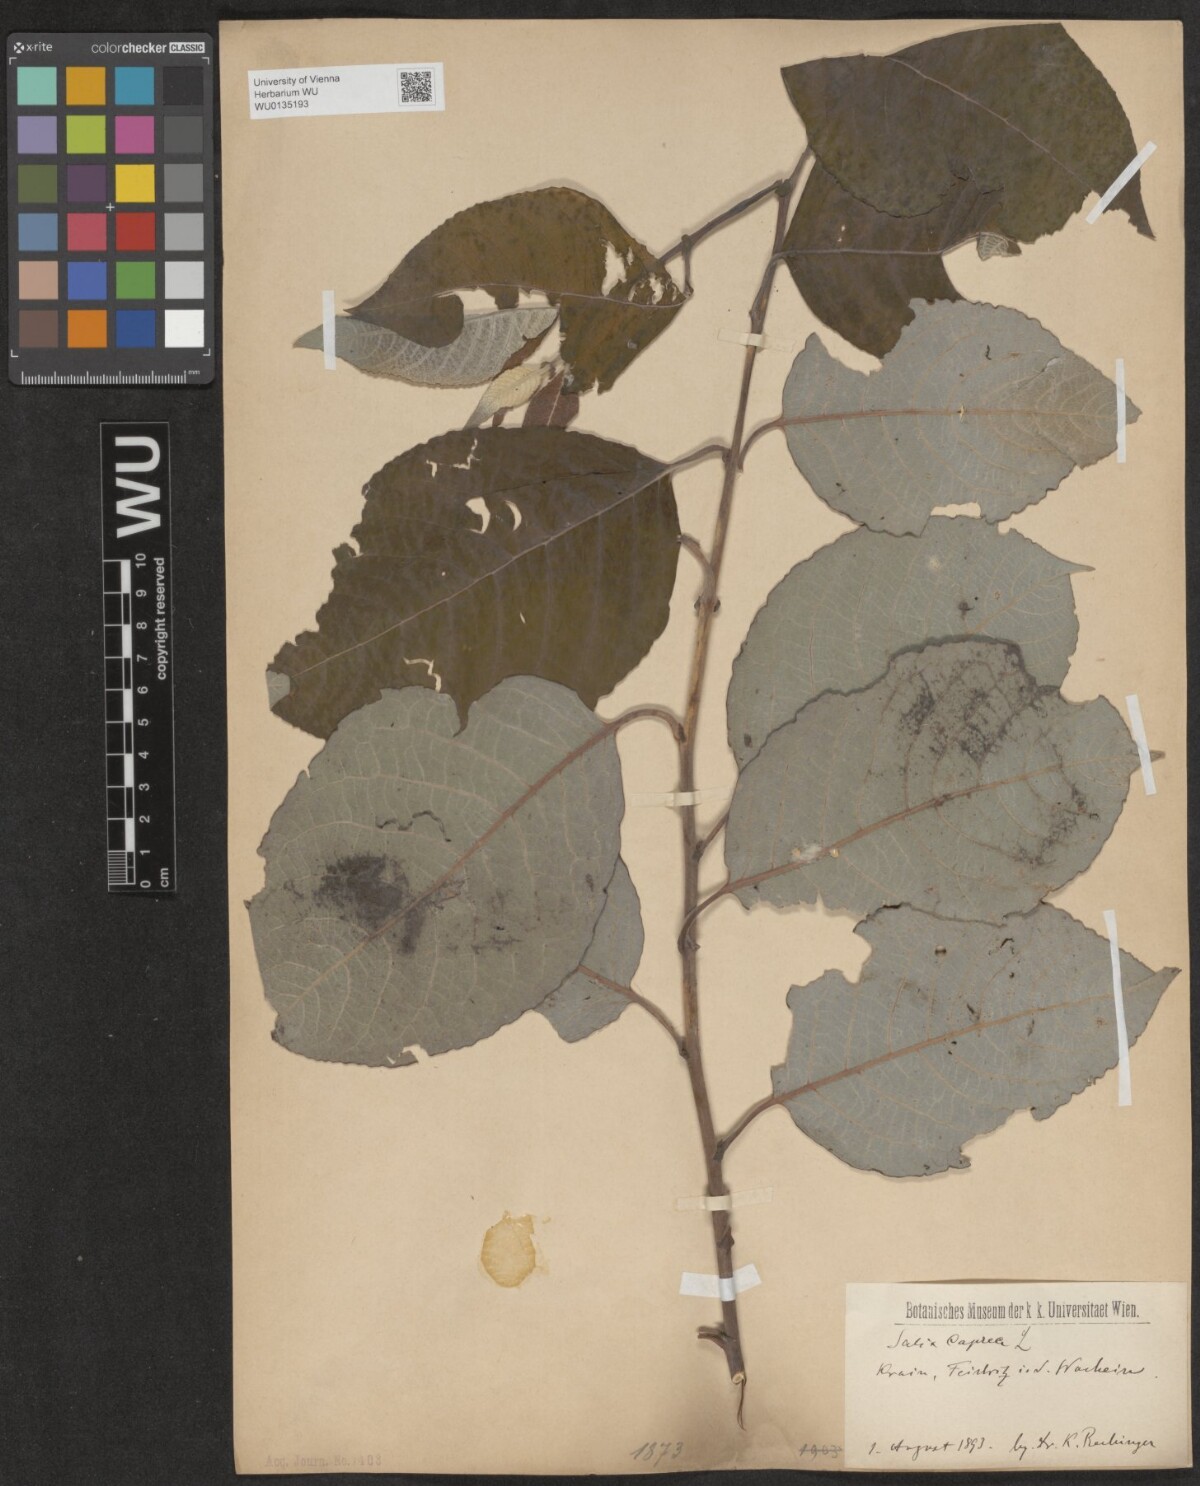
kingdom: Plantae
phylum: Tracheophyta
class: Magnoliopsida
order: Malpighiales
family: Salicaceae
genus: Salix
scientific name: Salix caprea
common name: Goat willow
